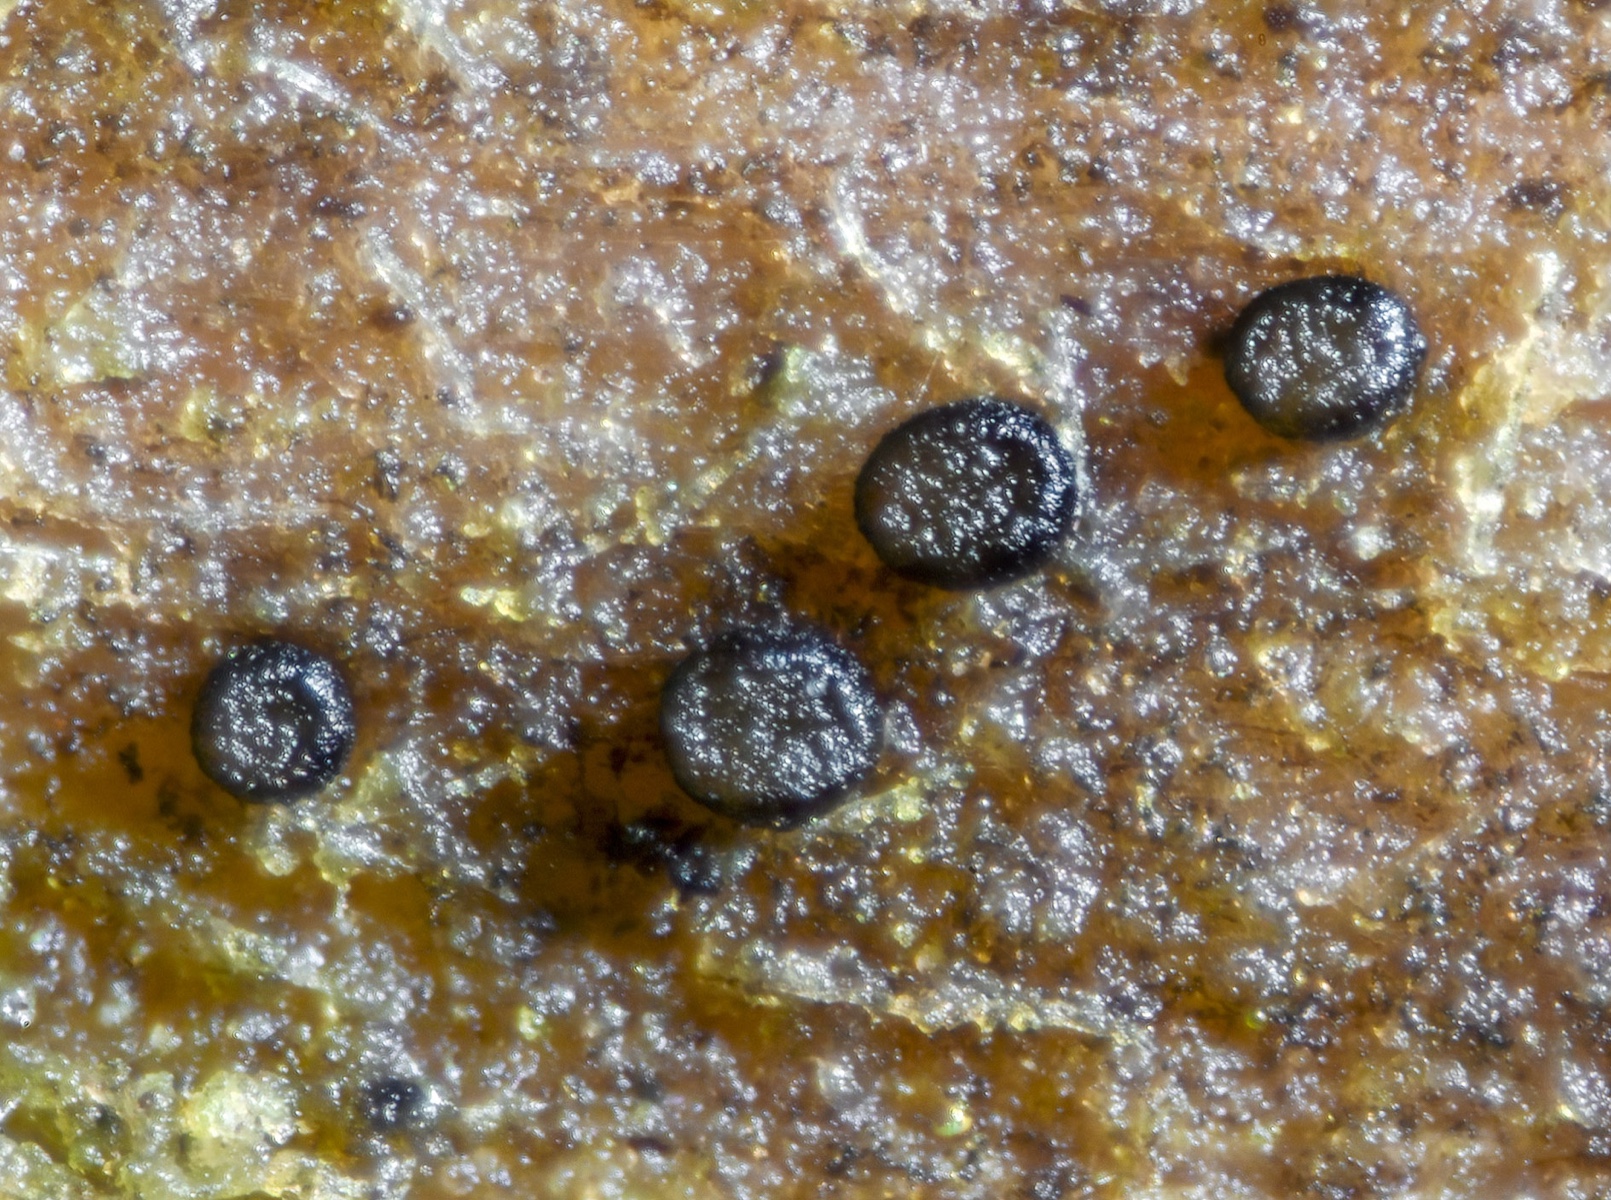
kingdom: Fungi
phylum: Ascomycota
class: Leotiomycetes
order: Helotiales
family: Helotiaceae
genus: Durella
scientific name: Durella connivens
